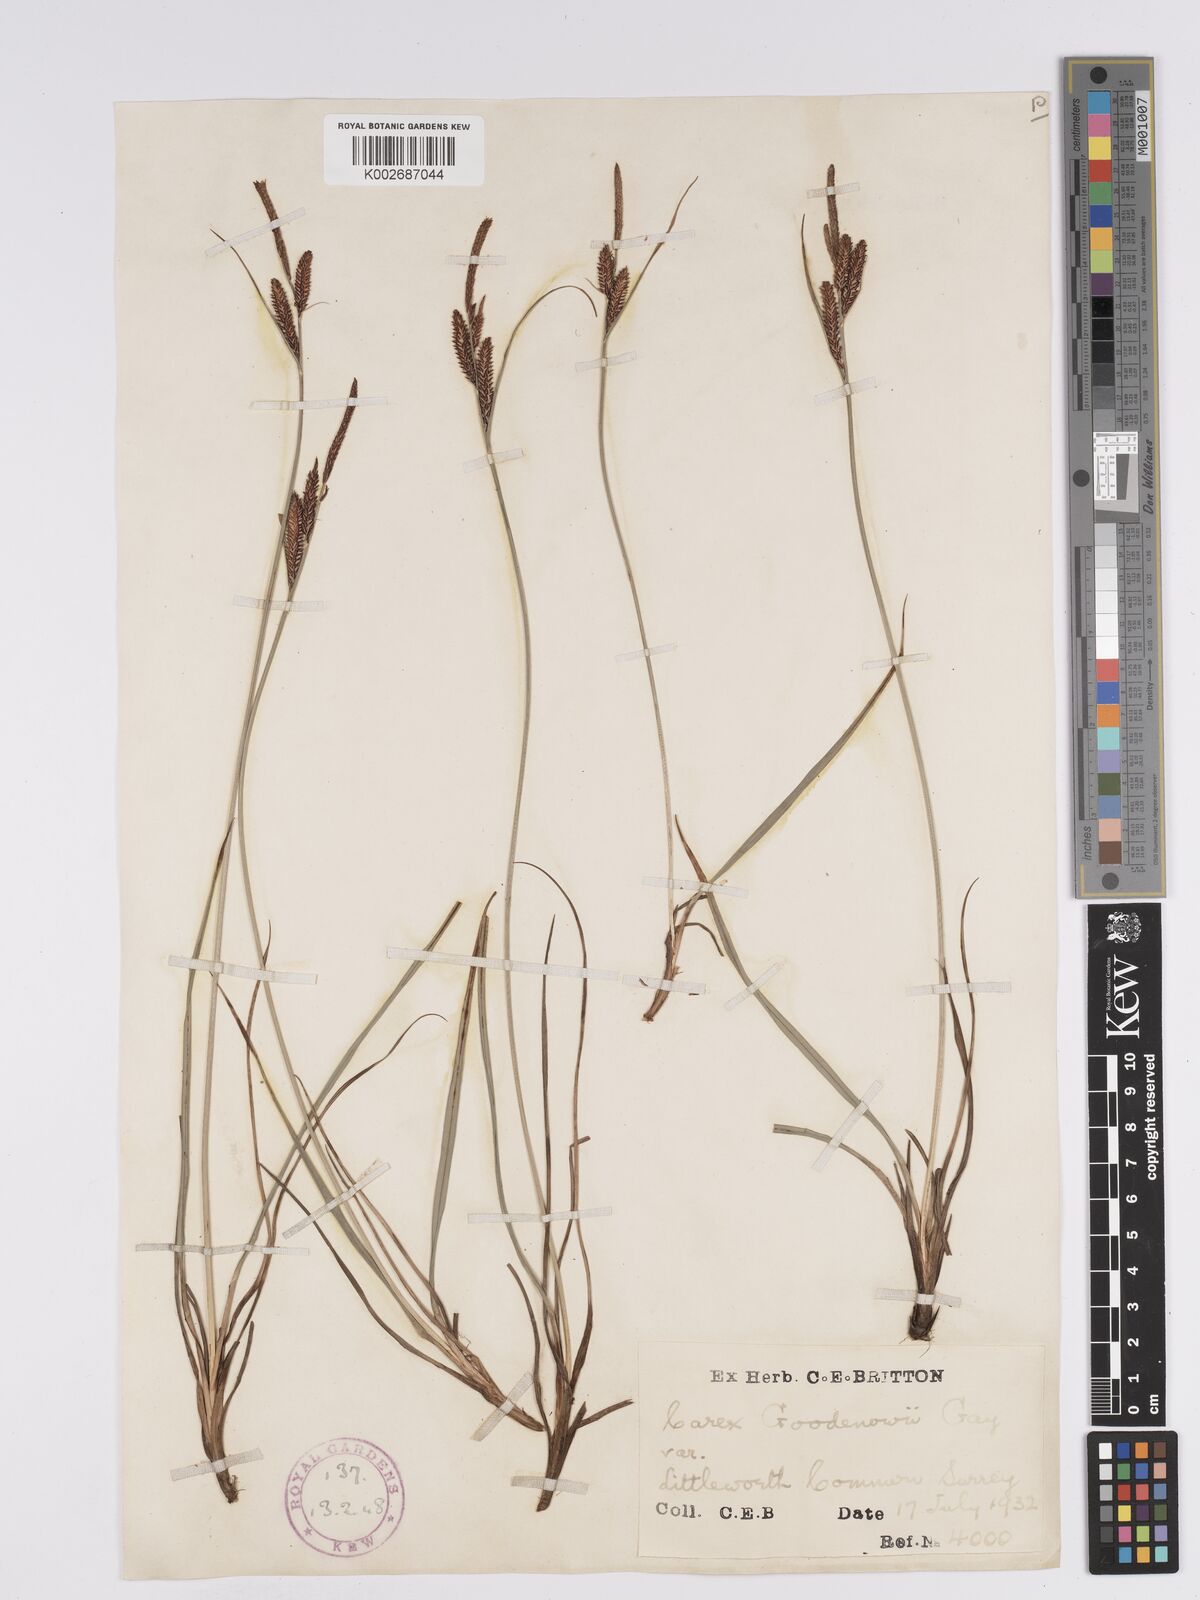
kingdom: Plantae
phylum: Tracheophyta
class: Liliopsida
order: Poales
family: Cyperaceae
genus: Carex
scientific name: Carex nigra
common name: Common sedge
